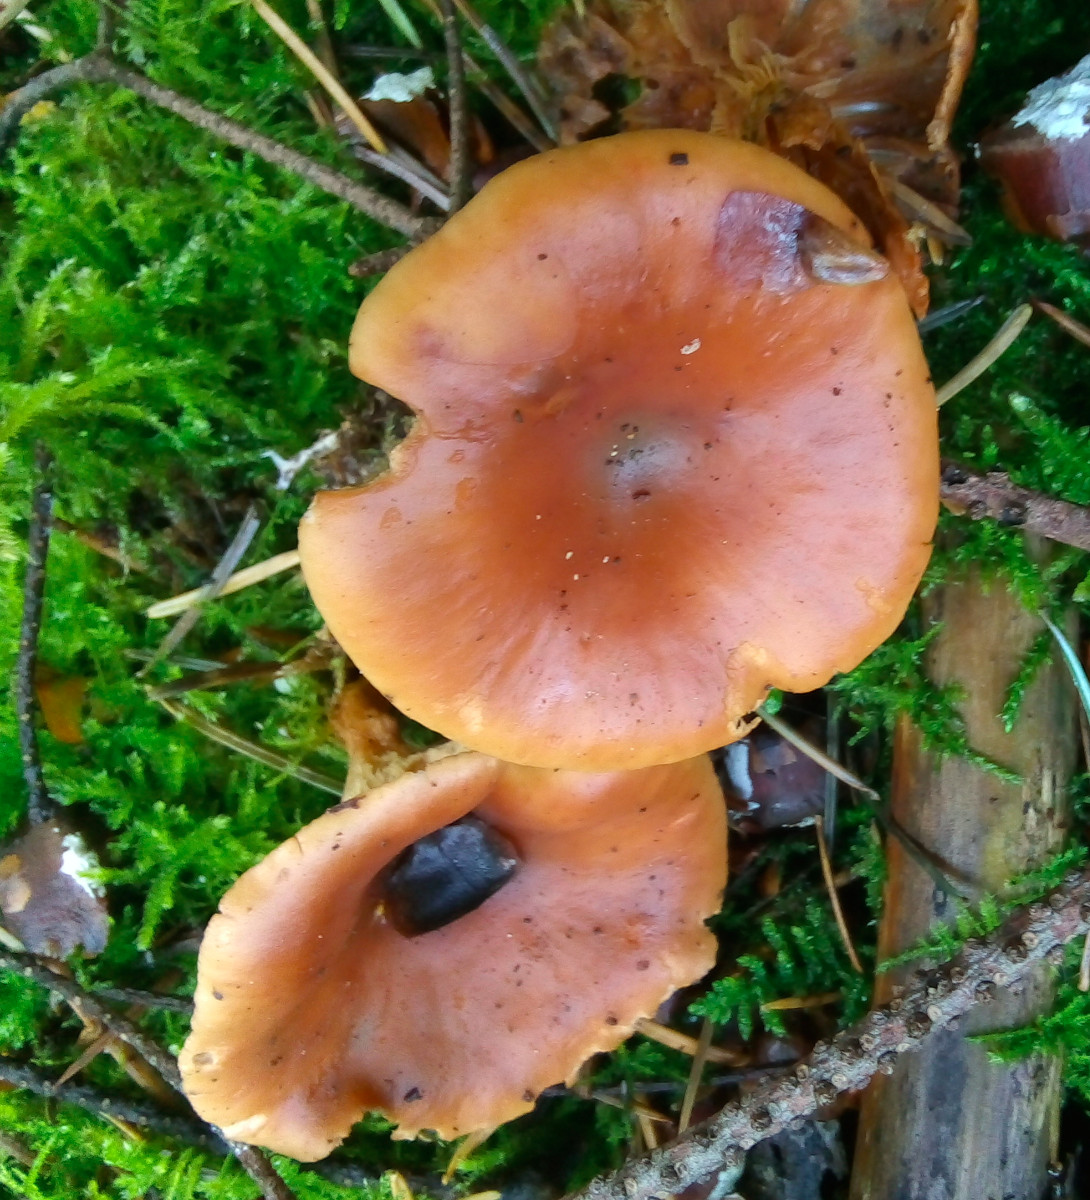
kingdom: Fungi
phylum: Basidiomycota
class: Agaricomycetes
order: Agaricales
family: Tricholomataceae
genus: Paralepista
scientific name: Paralepista flaccida
